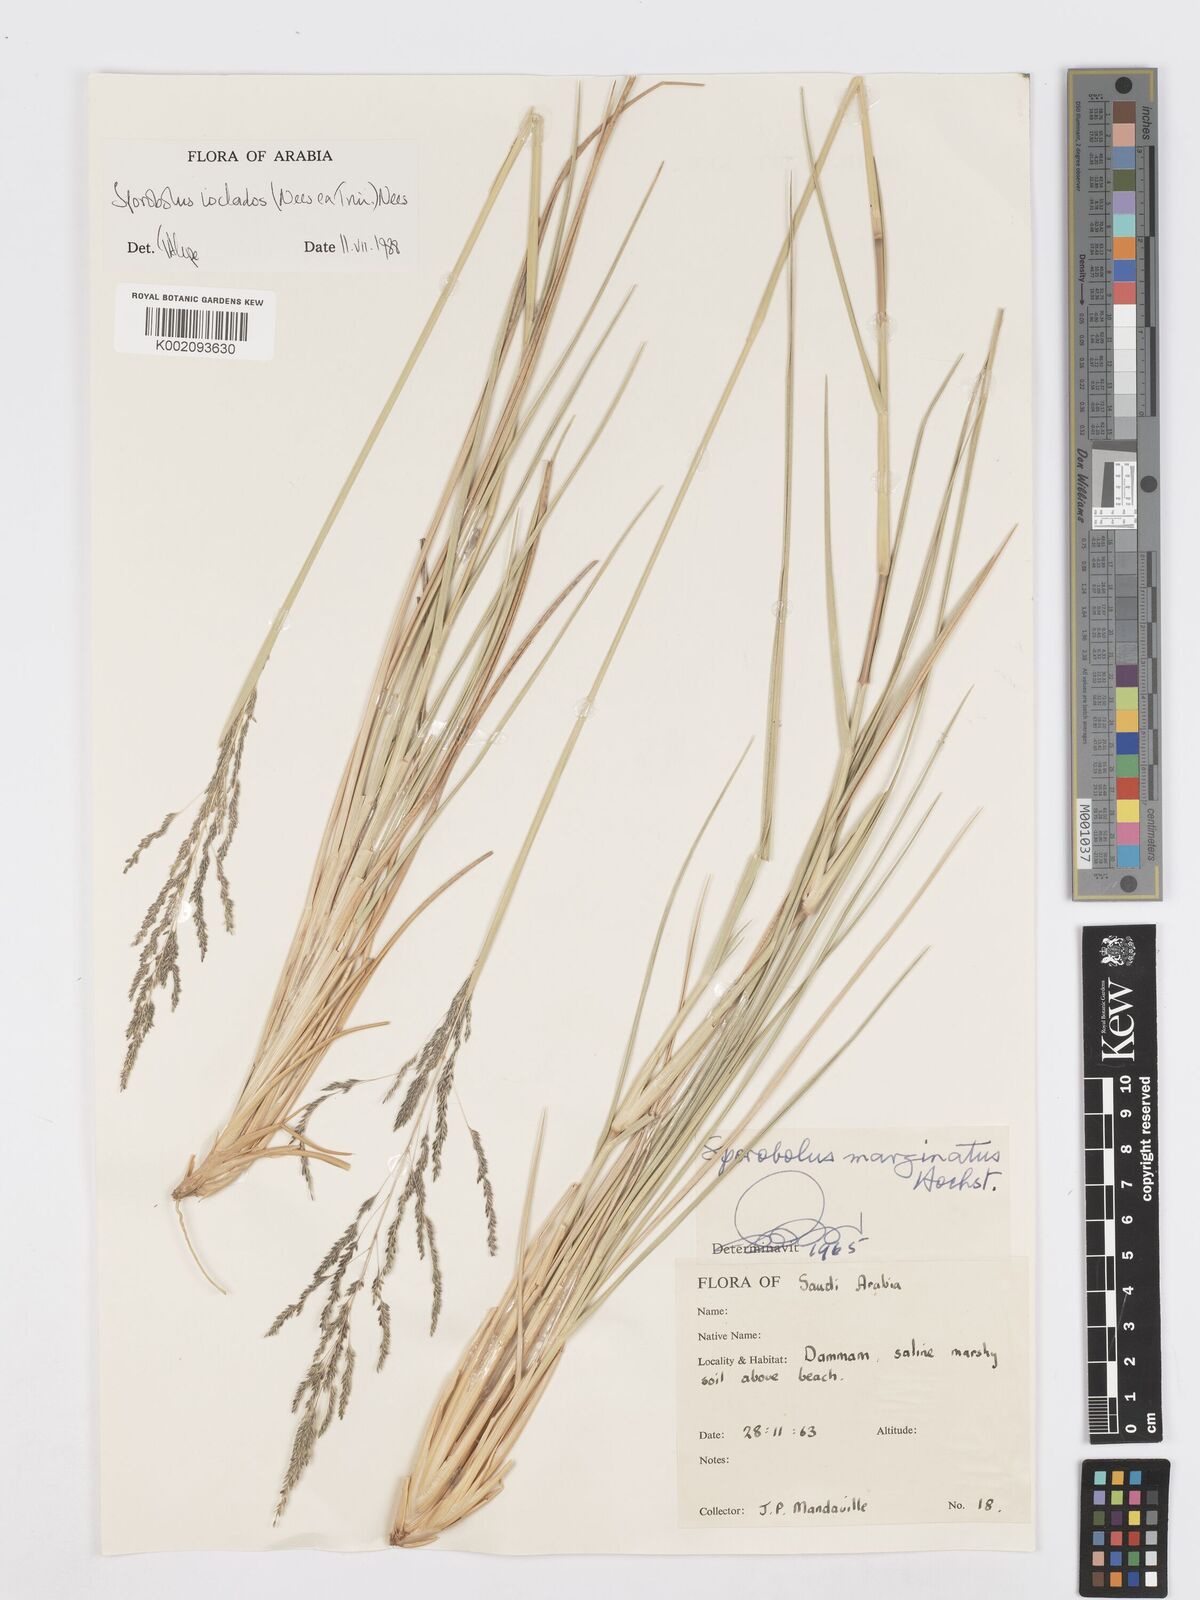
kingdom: Plantae
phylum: Tracheophyta
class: Liliopsida
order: Poales
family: Poaceae
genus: Sporobolus
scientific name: Sporobolus ioclados
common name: Pan dropseed
